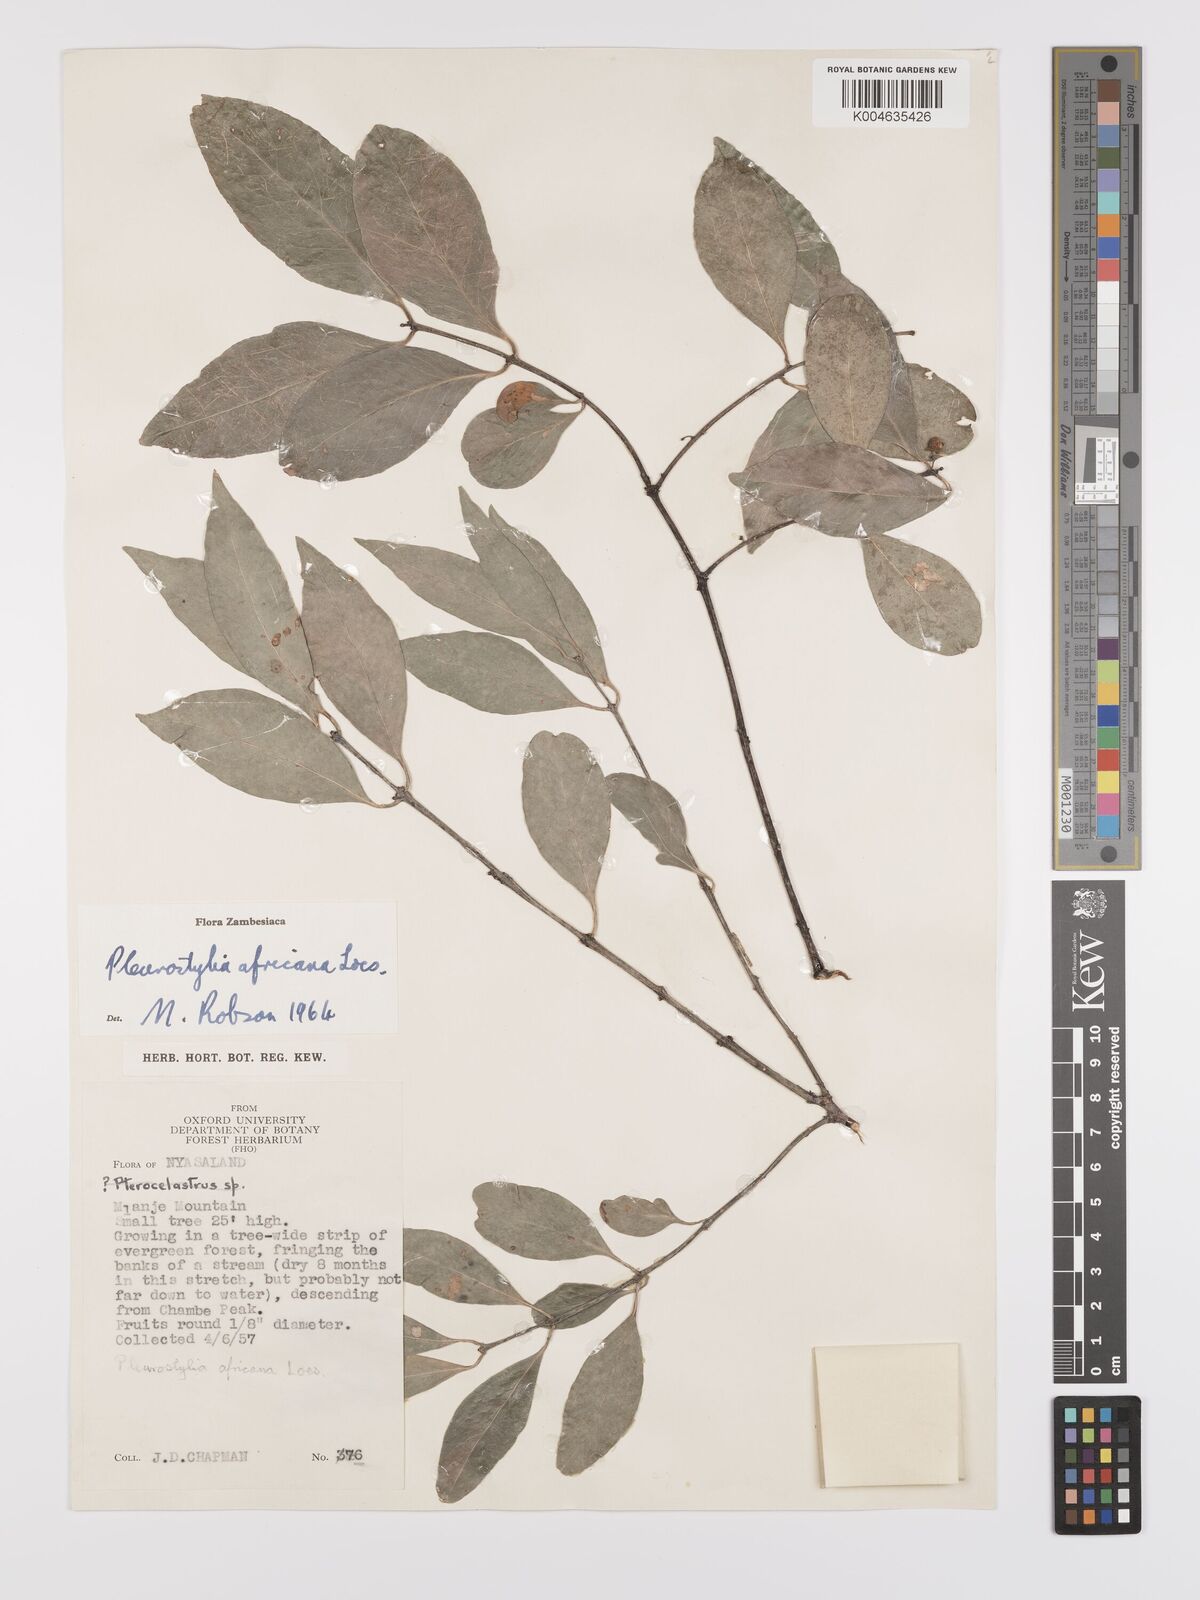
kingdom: Plantae
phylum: Tracheophyta
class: Magnoliopsida
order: Celastrales
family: Celastraceae
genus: Pleurostylia
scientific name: Pleurostylia africana
